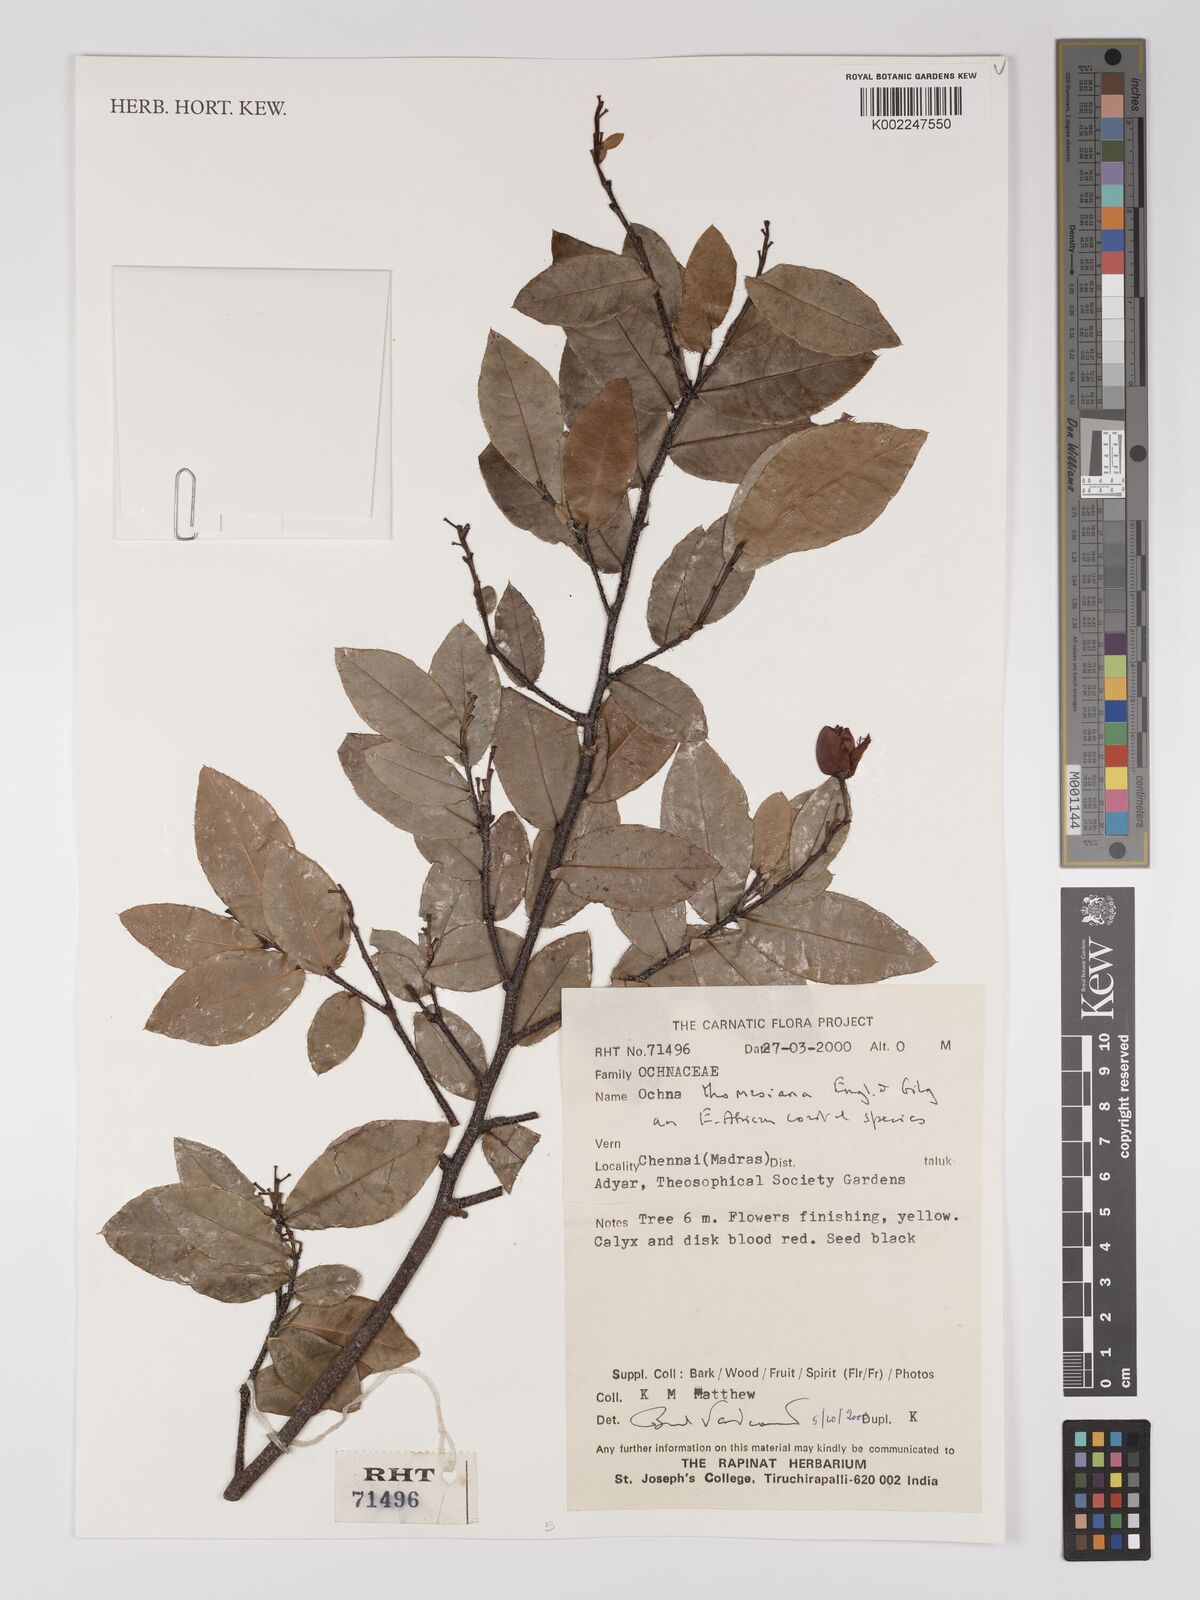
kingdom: Plantae
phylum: Tracheophyta
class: Magnoliopsida
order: Malpighiales
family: Ochnaceae
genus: Ochna
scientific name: Ochna thomasiana
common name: Thomas' bird's-eye bush
